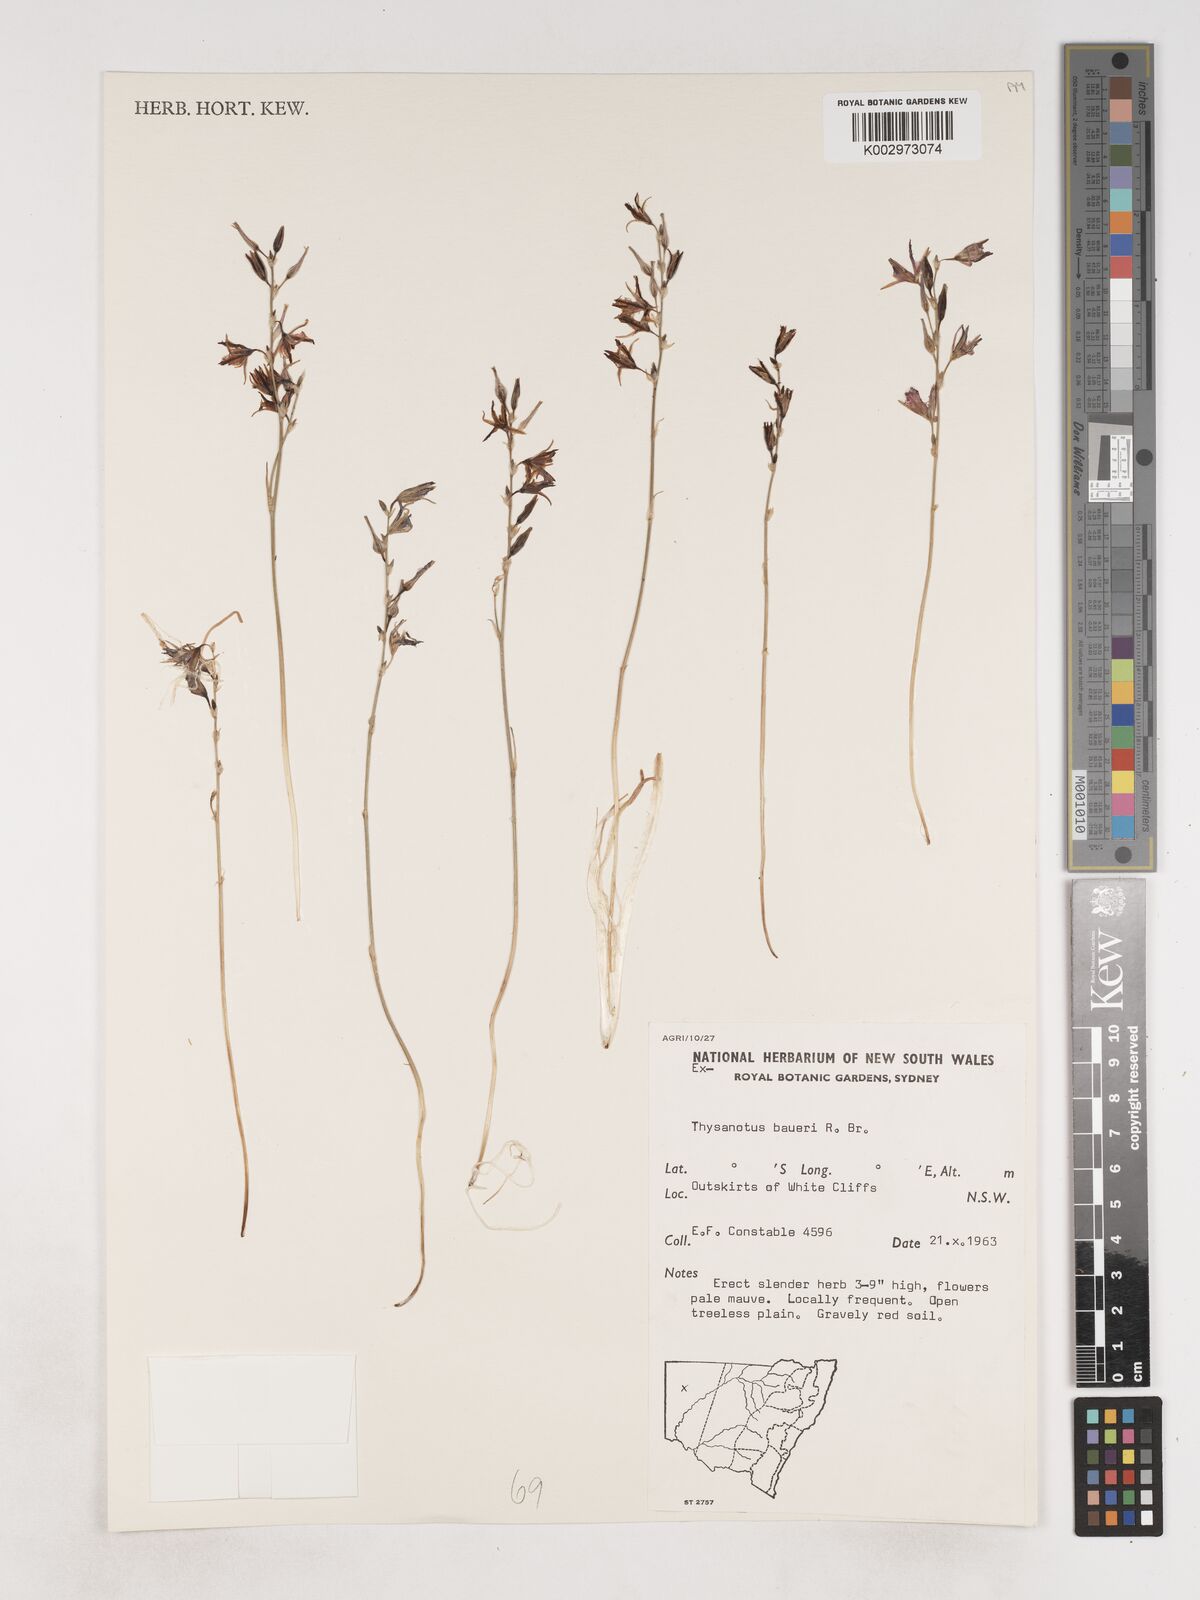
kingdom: Plantae
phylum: Tracheophyta
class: Liliopsida
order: Asparagales
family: Asparagaceae
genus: Thysanotus
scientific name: Thysanotus baueri
